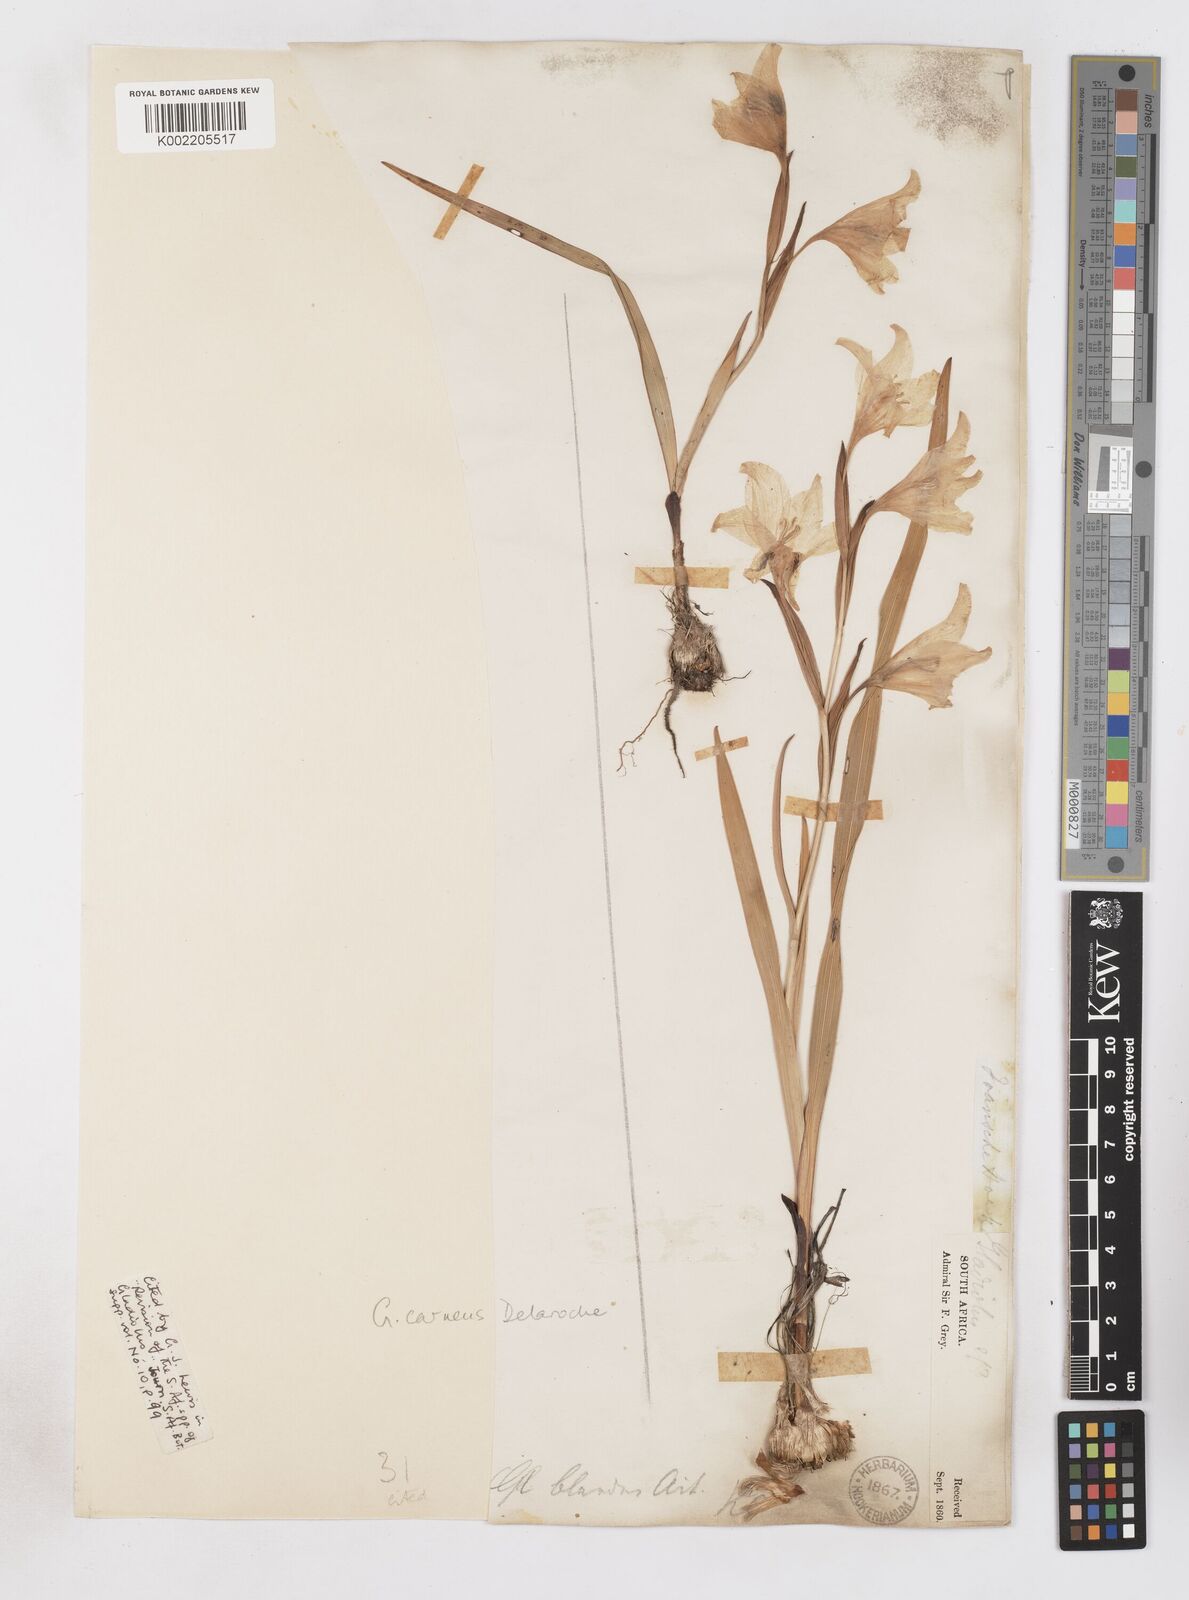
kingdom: Plantae
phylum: Tracheophyta
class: Liliopsida
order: Asparagales
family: Iridaceae
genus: Gladiolus
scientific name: Gladiolus carneus
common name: Painted-lady
